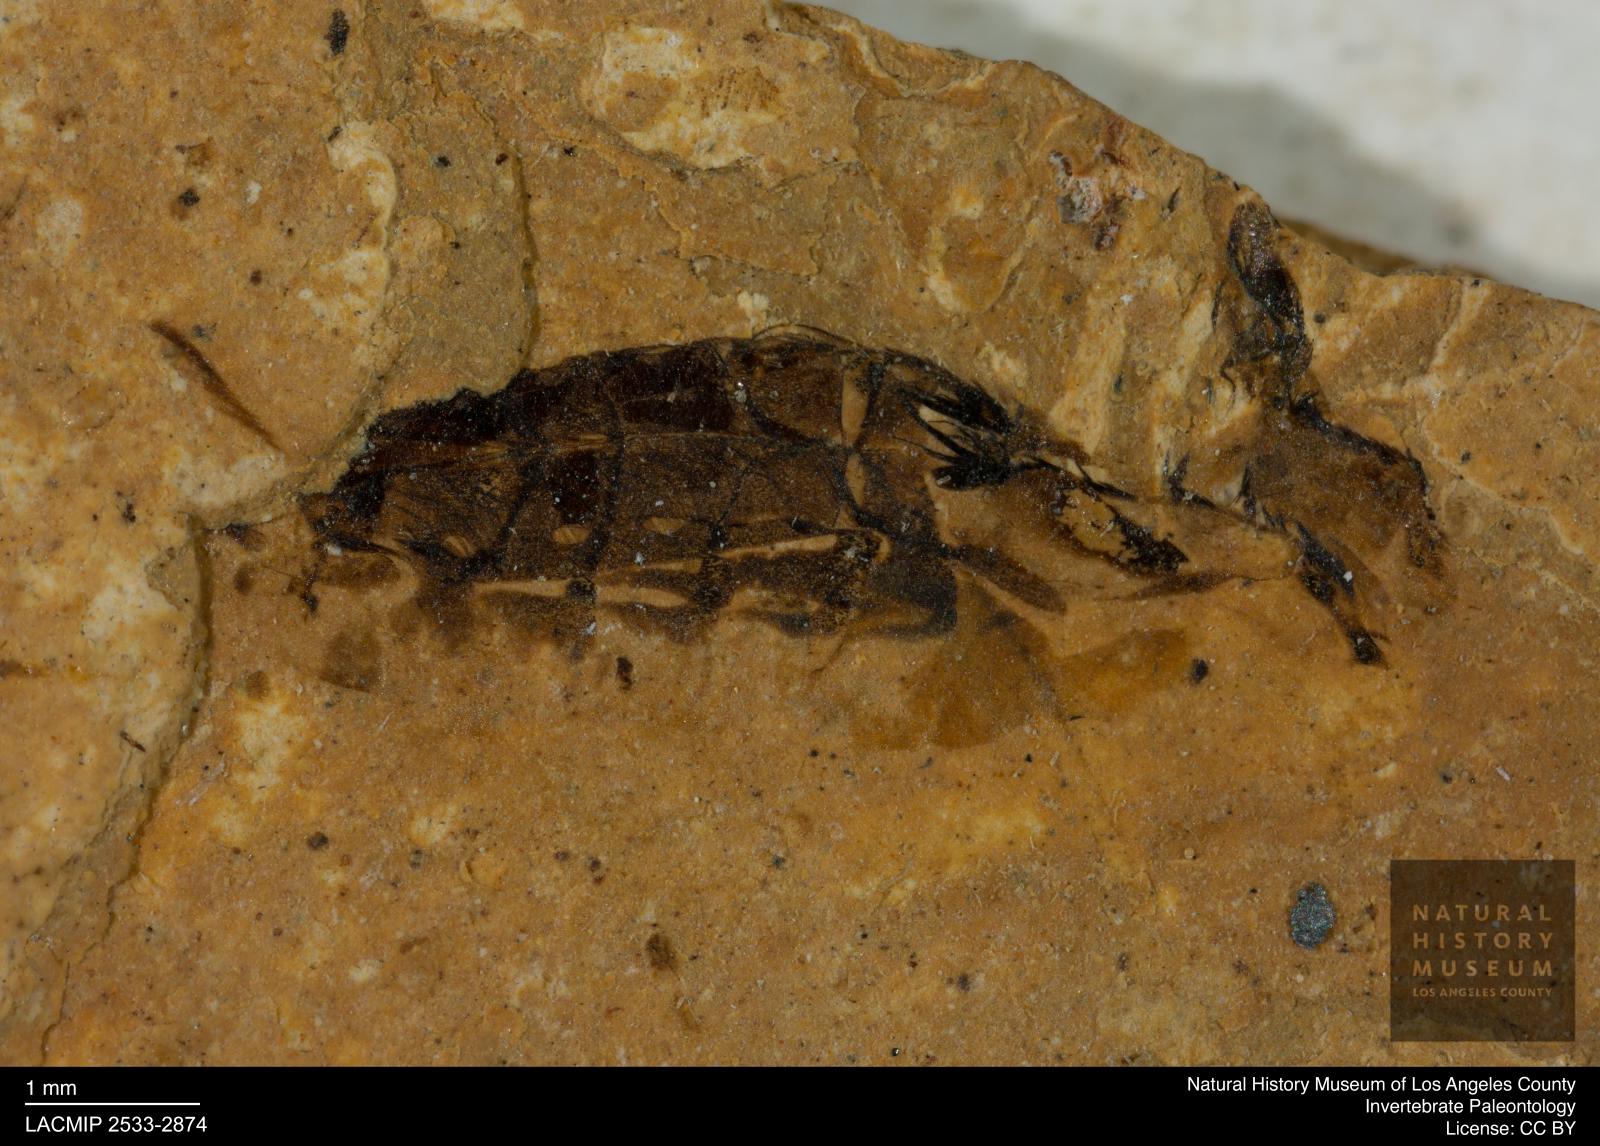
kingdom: Animalia
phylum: Arthropoda
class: Insecta
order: Hemiptera
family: Notonectidae
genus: Notonecta
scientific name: Notonecta
